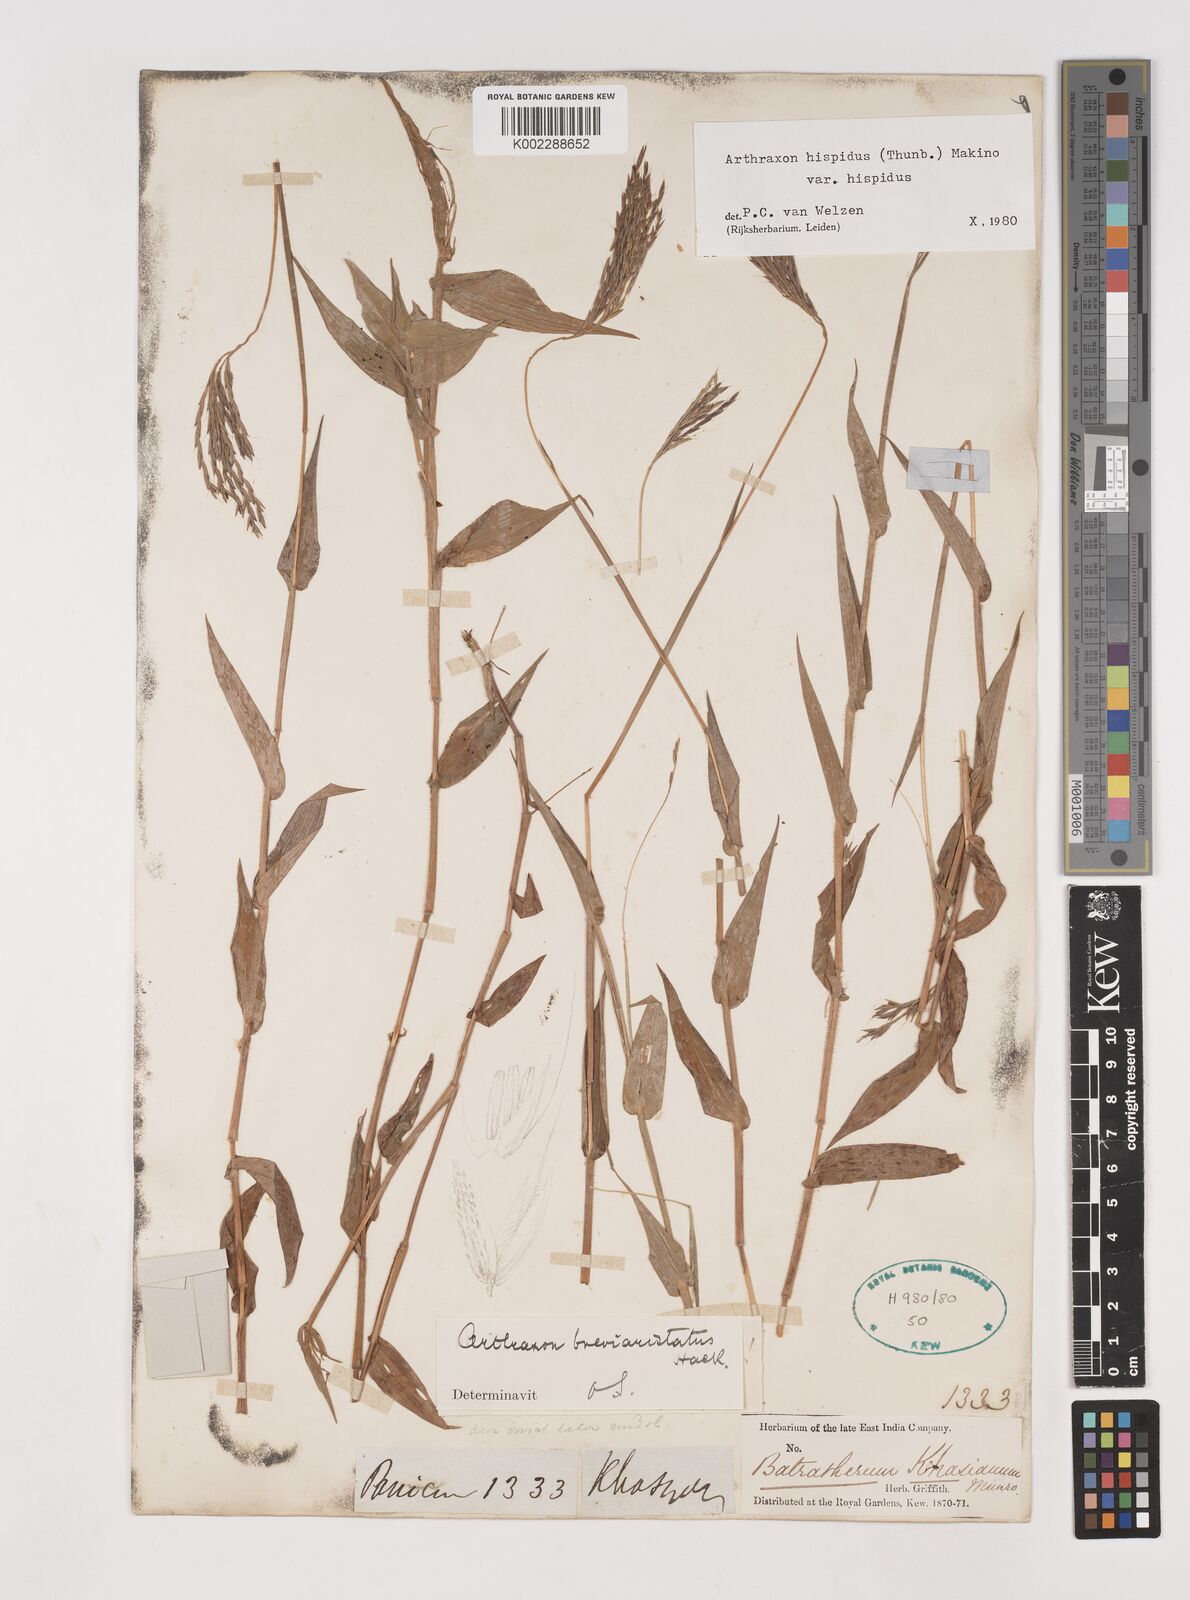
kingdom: Plantae
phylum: Tracheophyta
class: Liliopsida
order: Poales
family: Poaceae
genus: Arthraxon
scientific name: Arthraxon typicus
